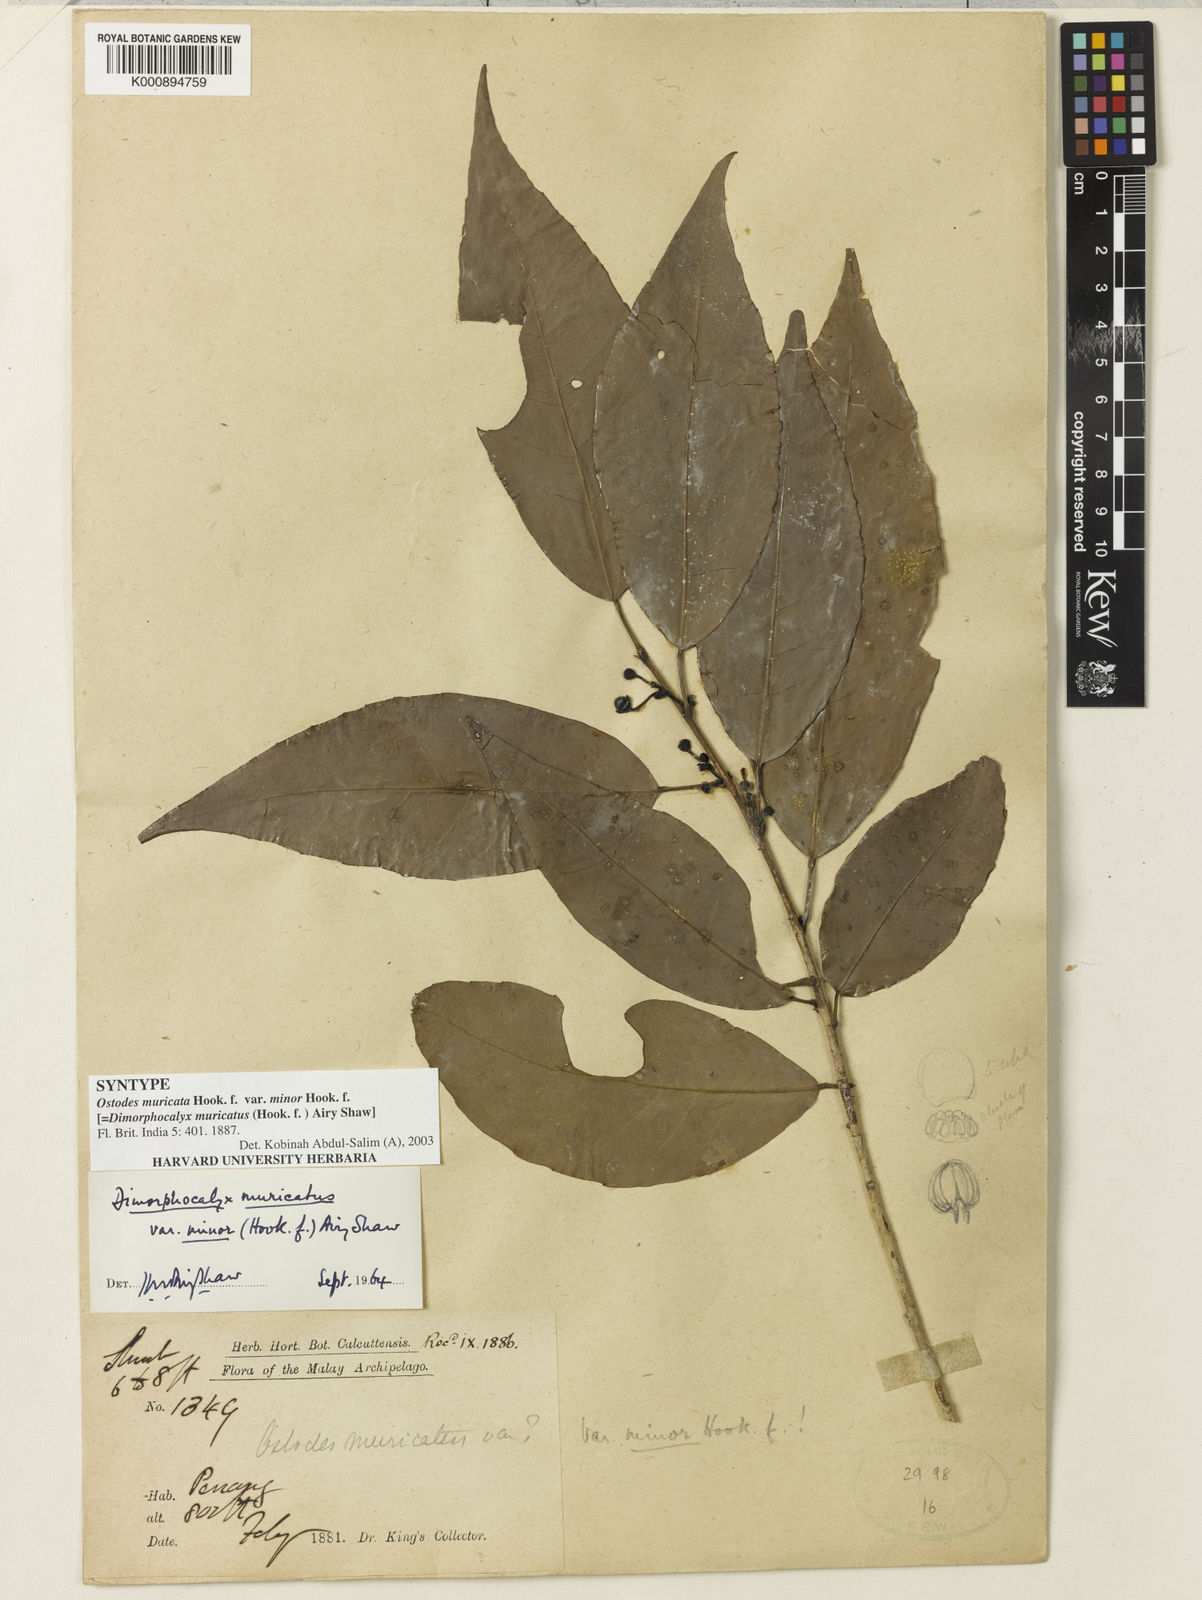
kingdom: Plantae
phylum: Tracheophyta
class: Magnoliopsida
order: Malpighiales
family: Euphorbiaceae
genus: Tritaxis
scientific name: Tritaxis muricata
